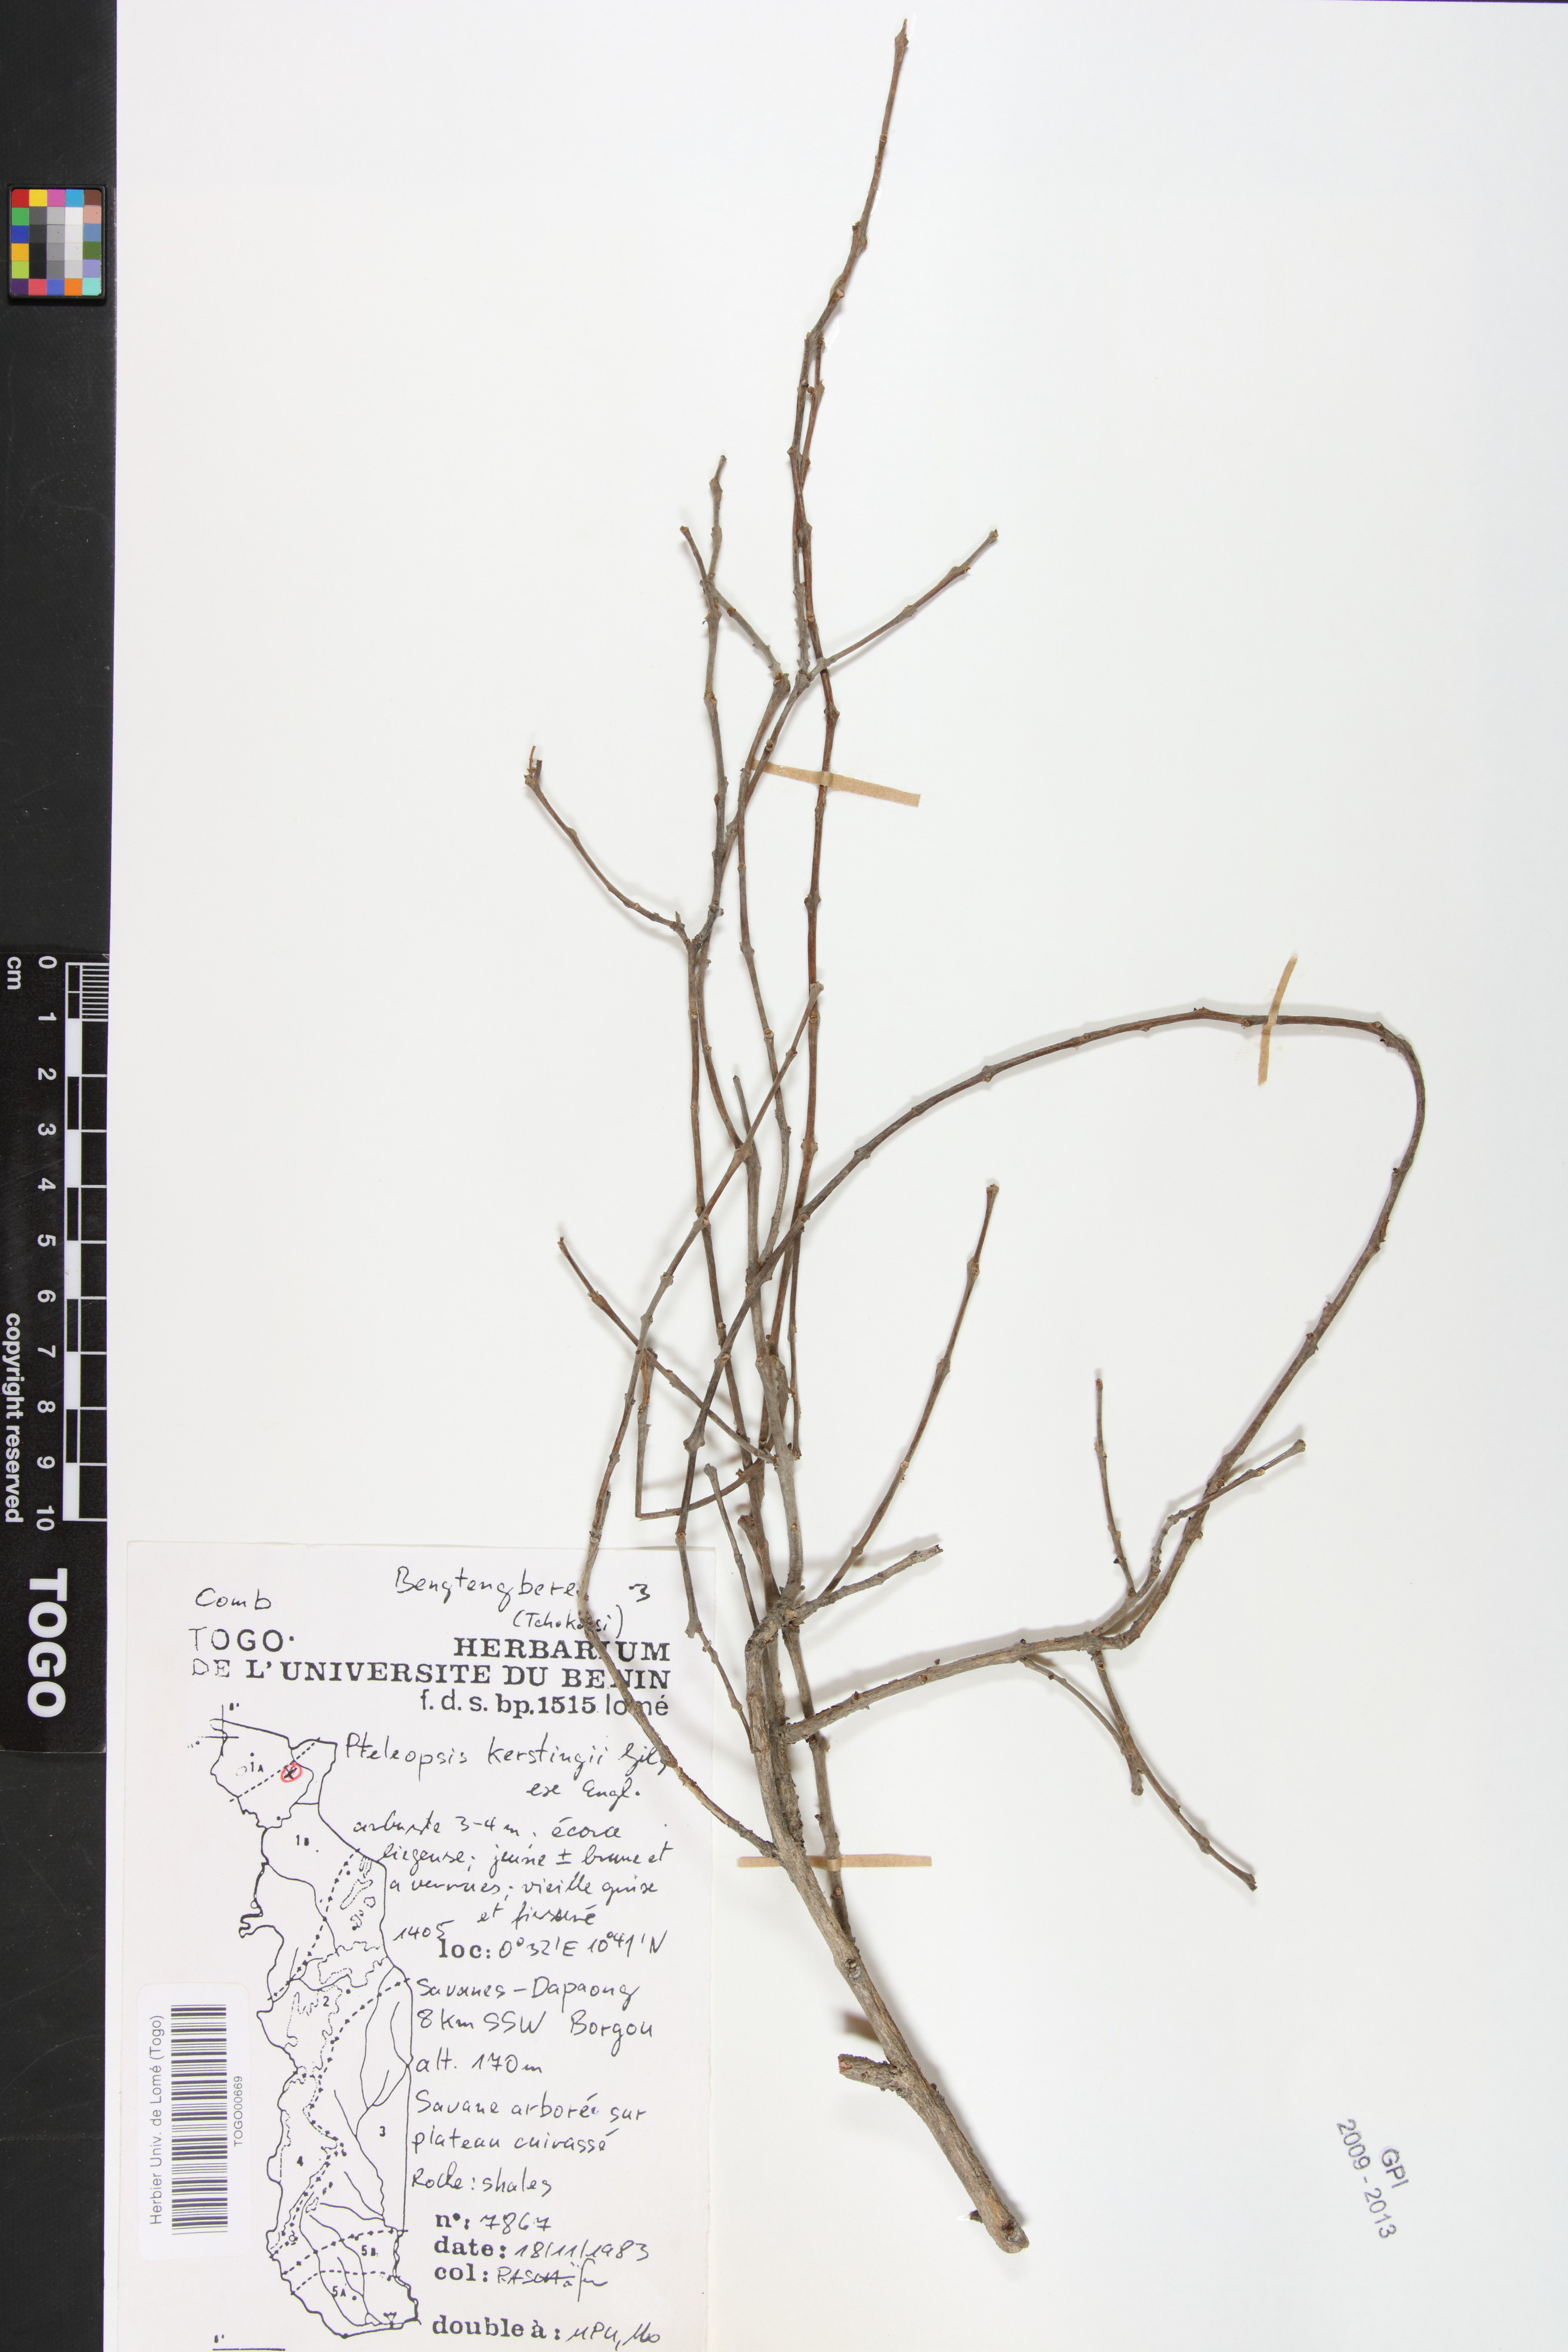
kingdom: Plantae
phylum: Tracheophyta
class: Magnoliopsida
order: Myrtales
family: Combretaceae
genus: Terminalia
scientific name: Terminalia mollis
